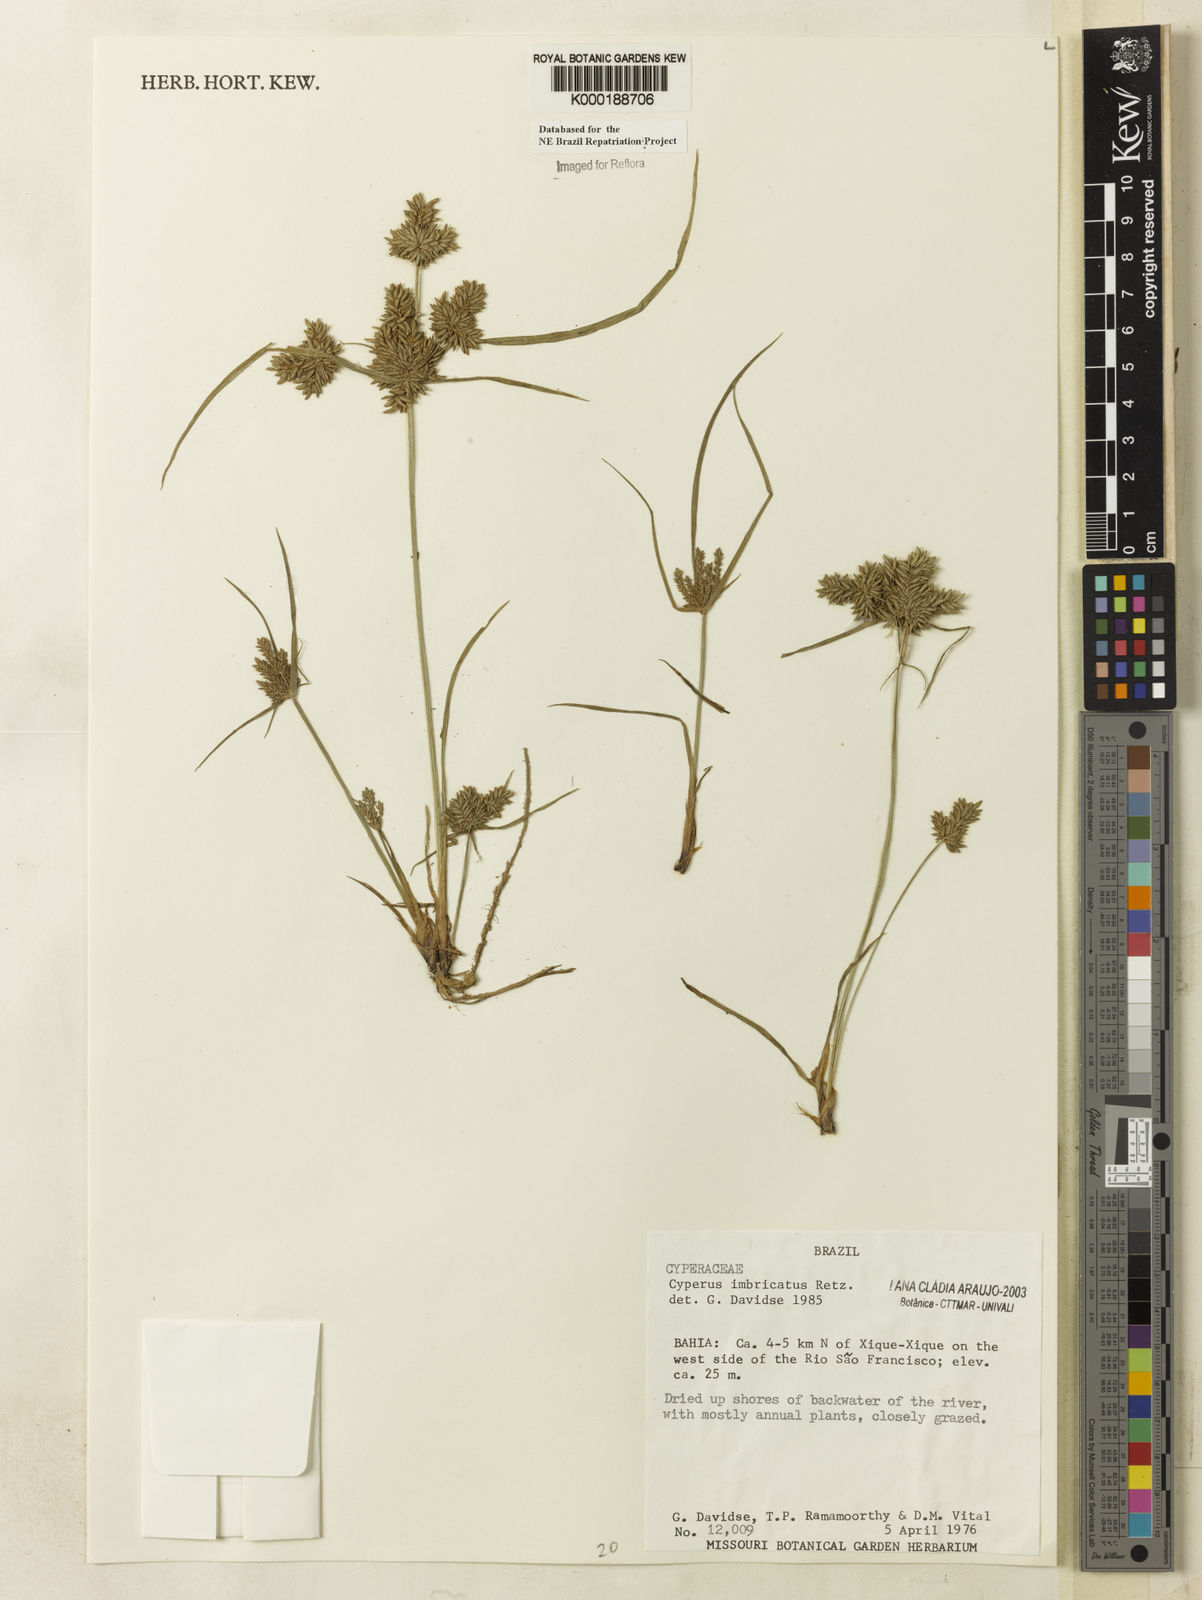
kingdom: Plantae
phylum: Tracheophyta
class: Liliopsida
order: Poales
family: Cyperaceae
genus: Cyperus
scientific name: Cyperus imbricatus
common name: Shingle flatsedge
